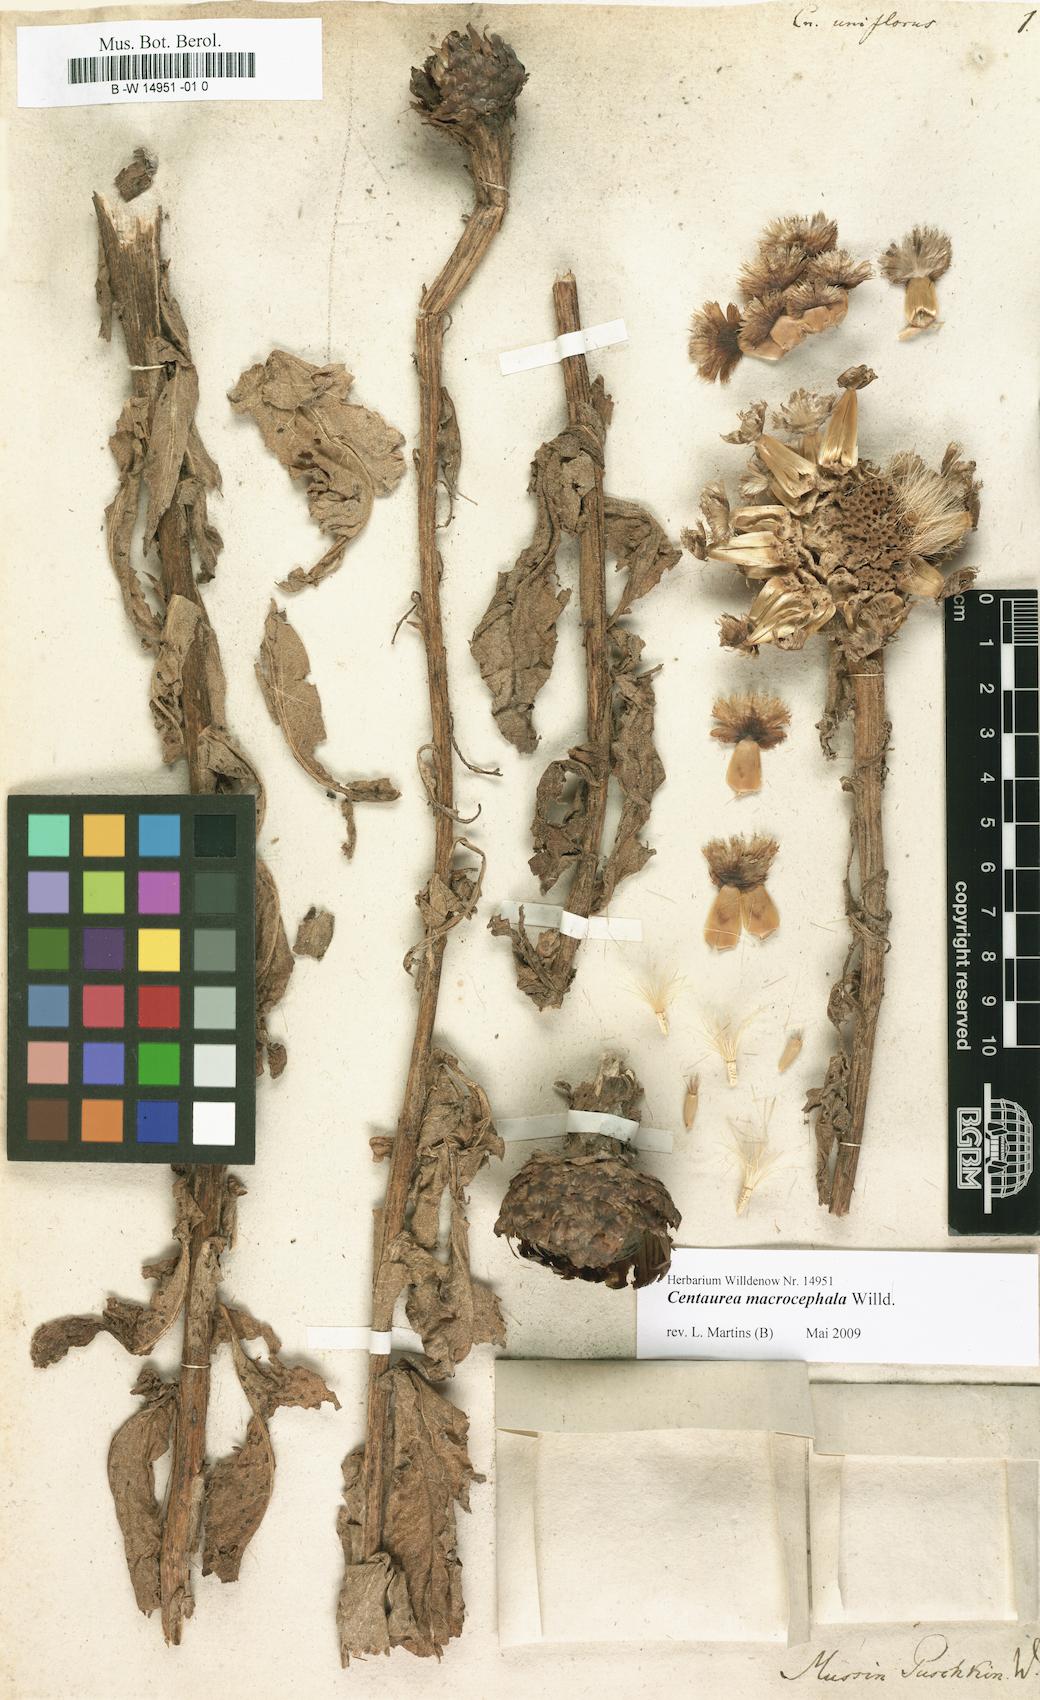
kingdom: Plantae
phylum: Tracheophyta
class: Magnoliopsida
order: Asterales
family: Asteraceae
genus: Leuzea
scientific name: Leuzea
